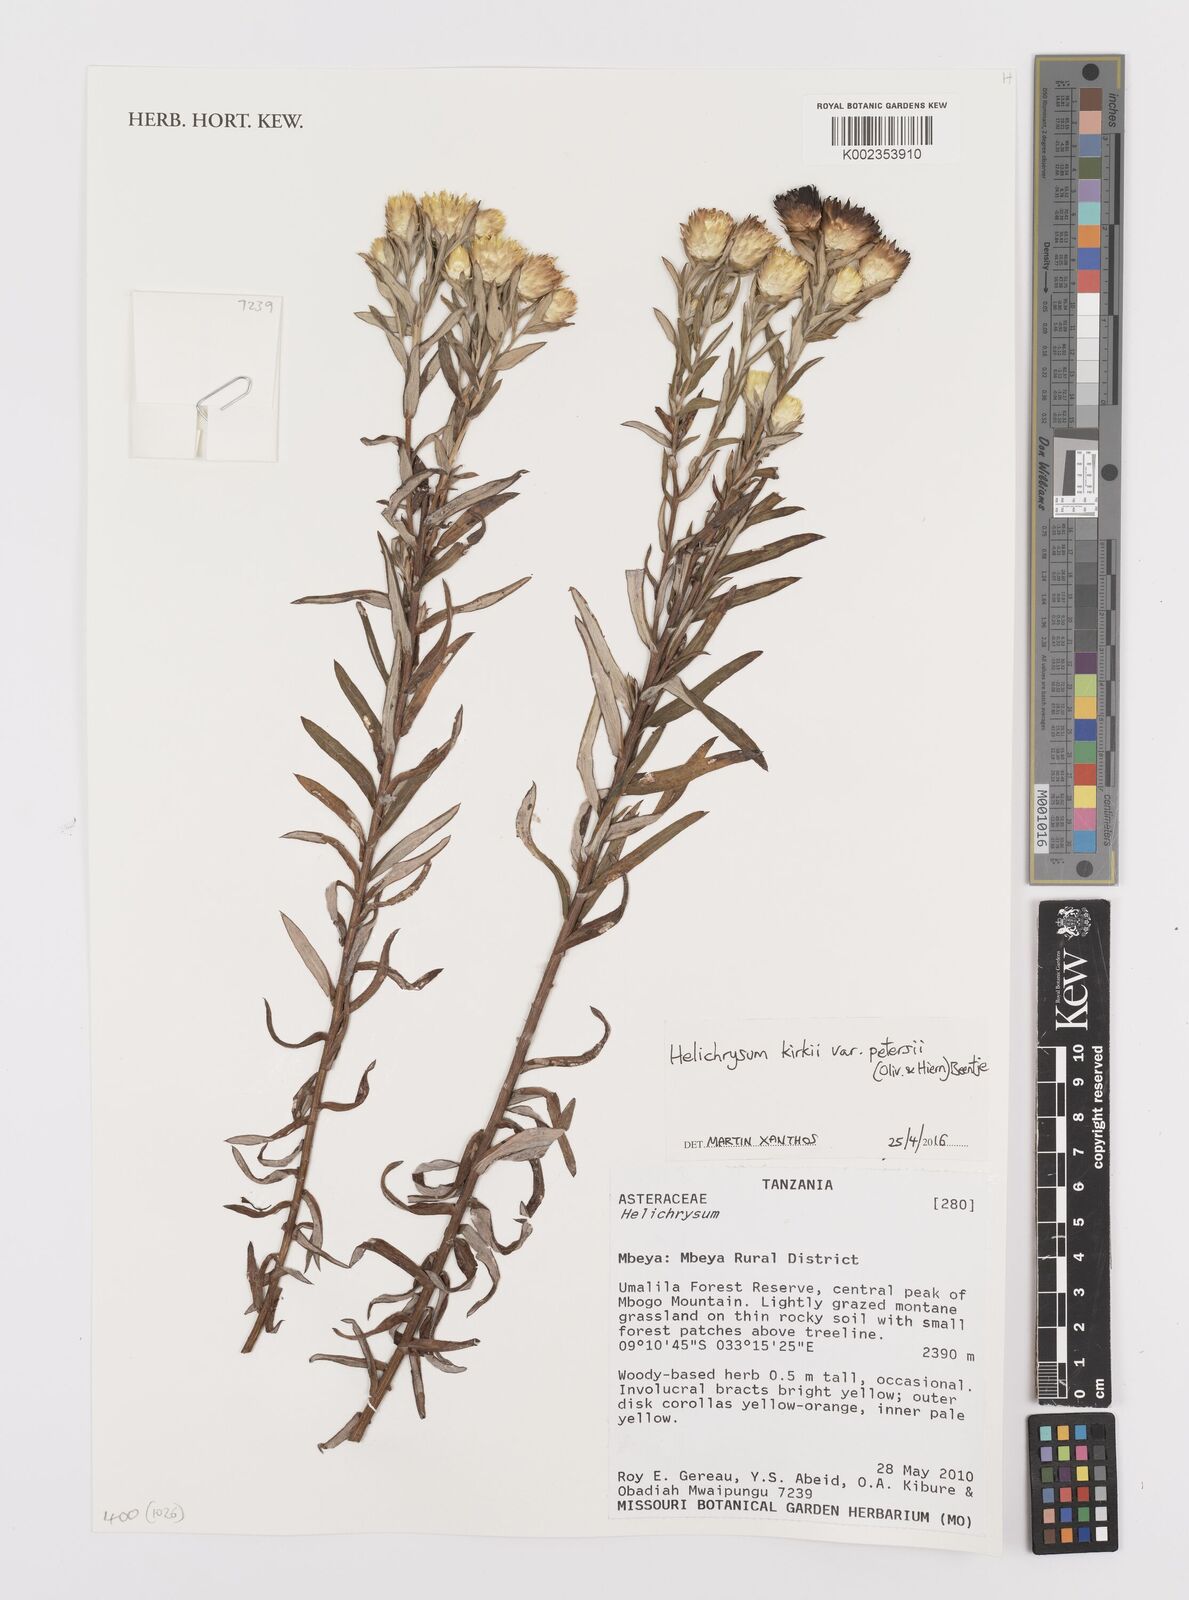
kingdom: Plantae
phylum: Tracheophyta
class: Magnoliopsida
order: Asterales
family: Asteraceae
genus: Helichrysum
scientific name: Helichrysum kirkii
